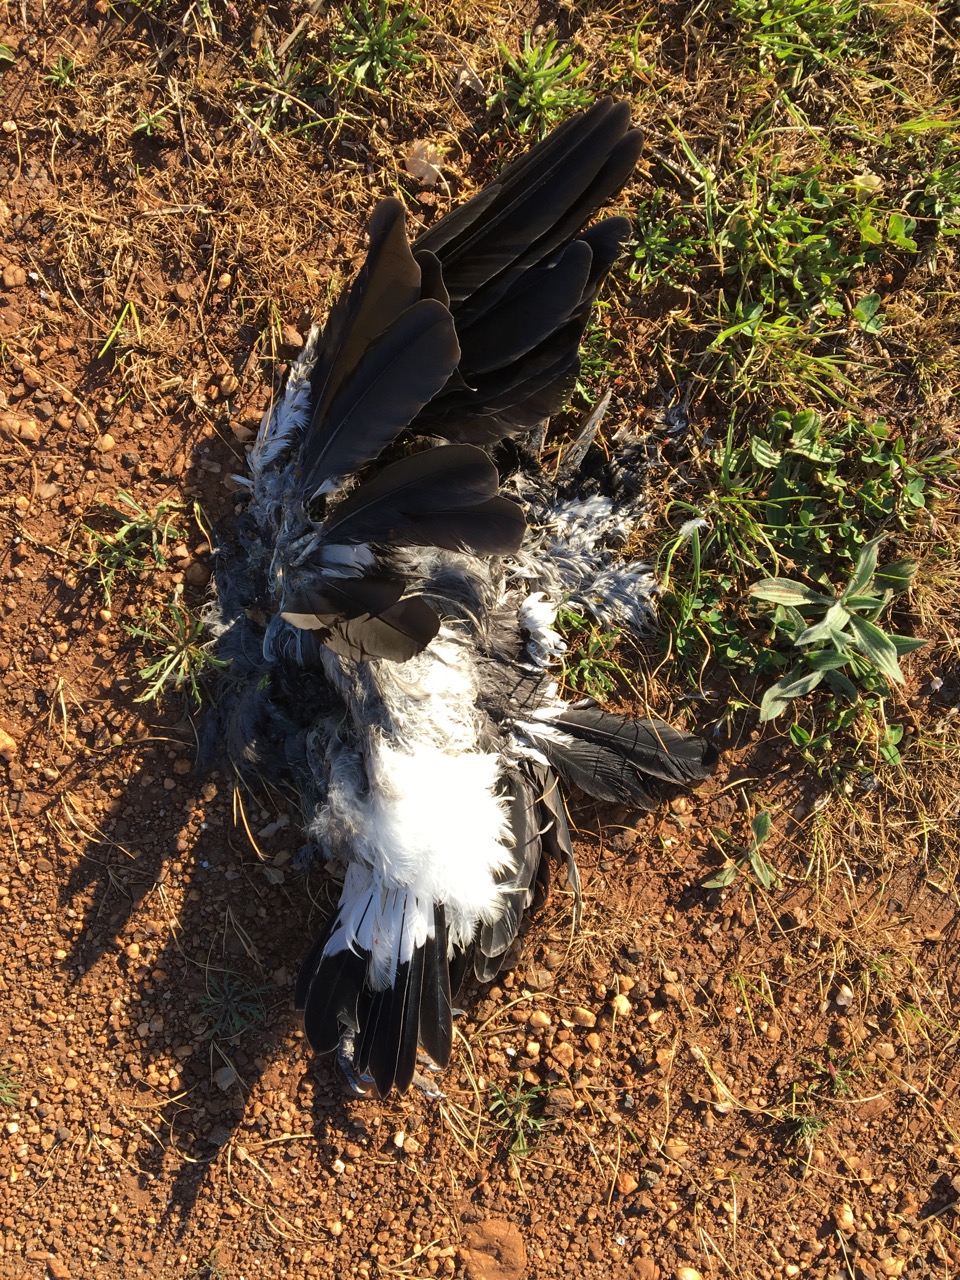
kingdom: Animalia
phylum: Chordata
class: Aves
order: Passeriformes
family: Cracticidae
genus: Gymnorhina
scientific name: Gymnorhina tibicen
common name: Australian magpie
